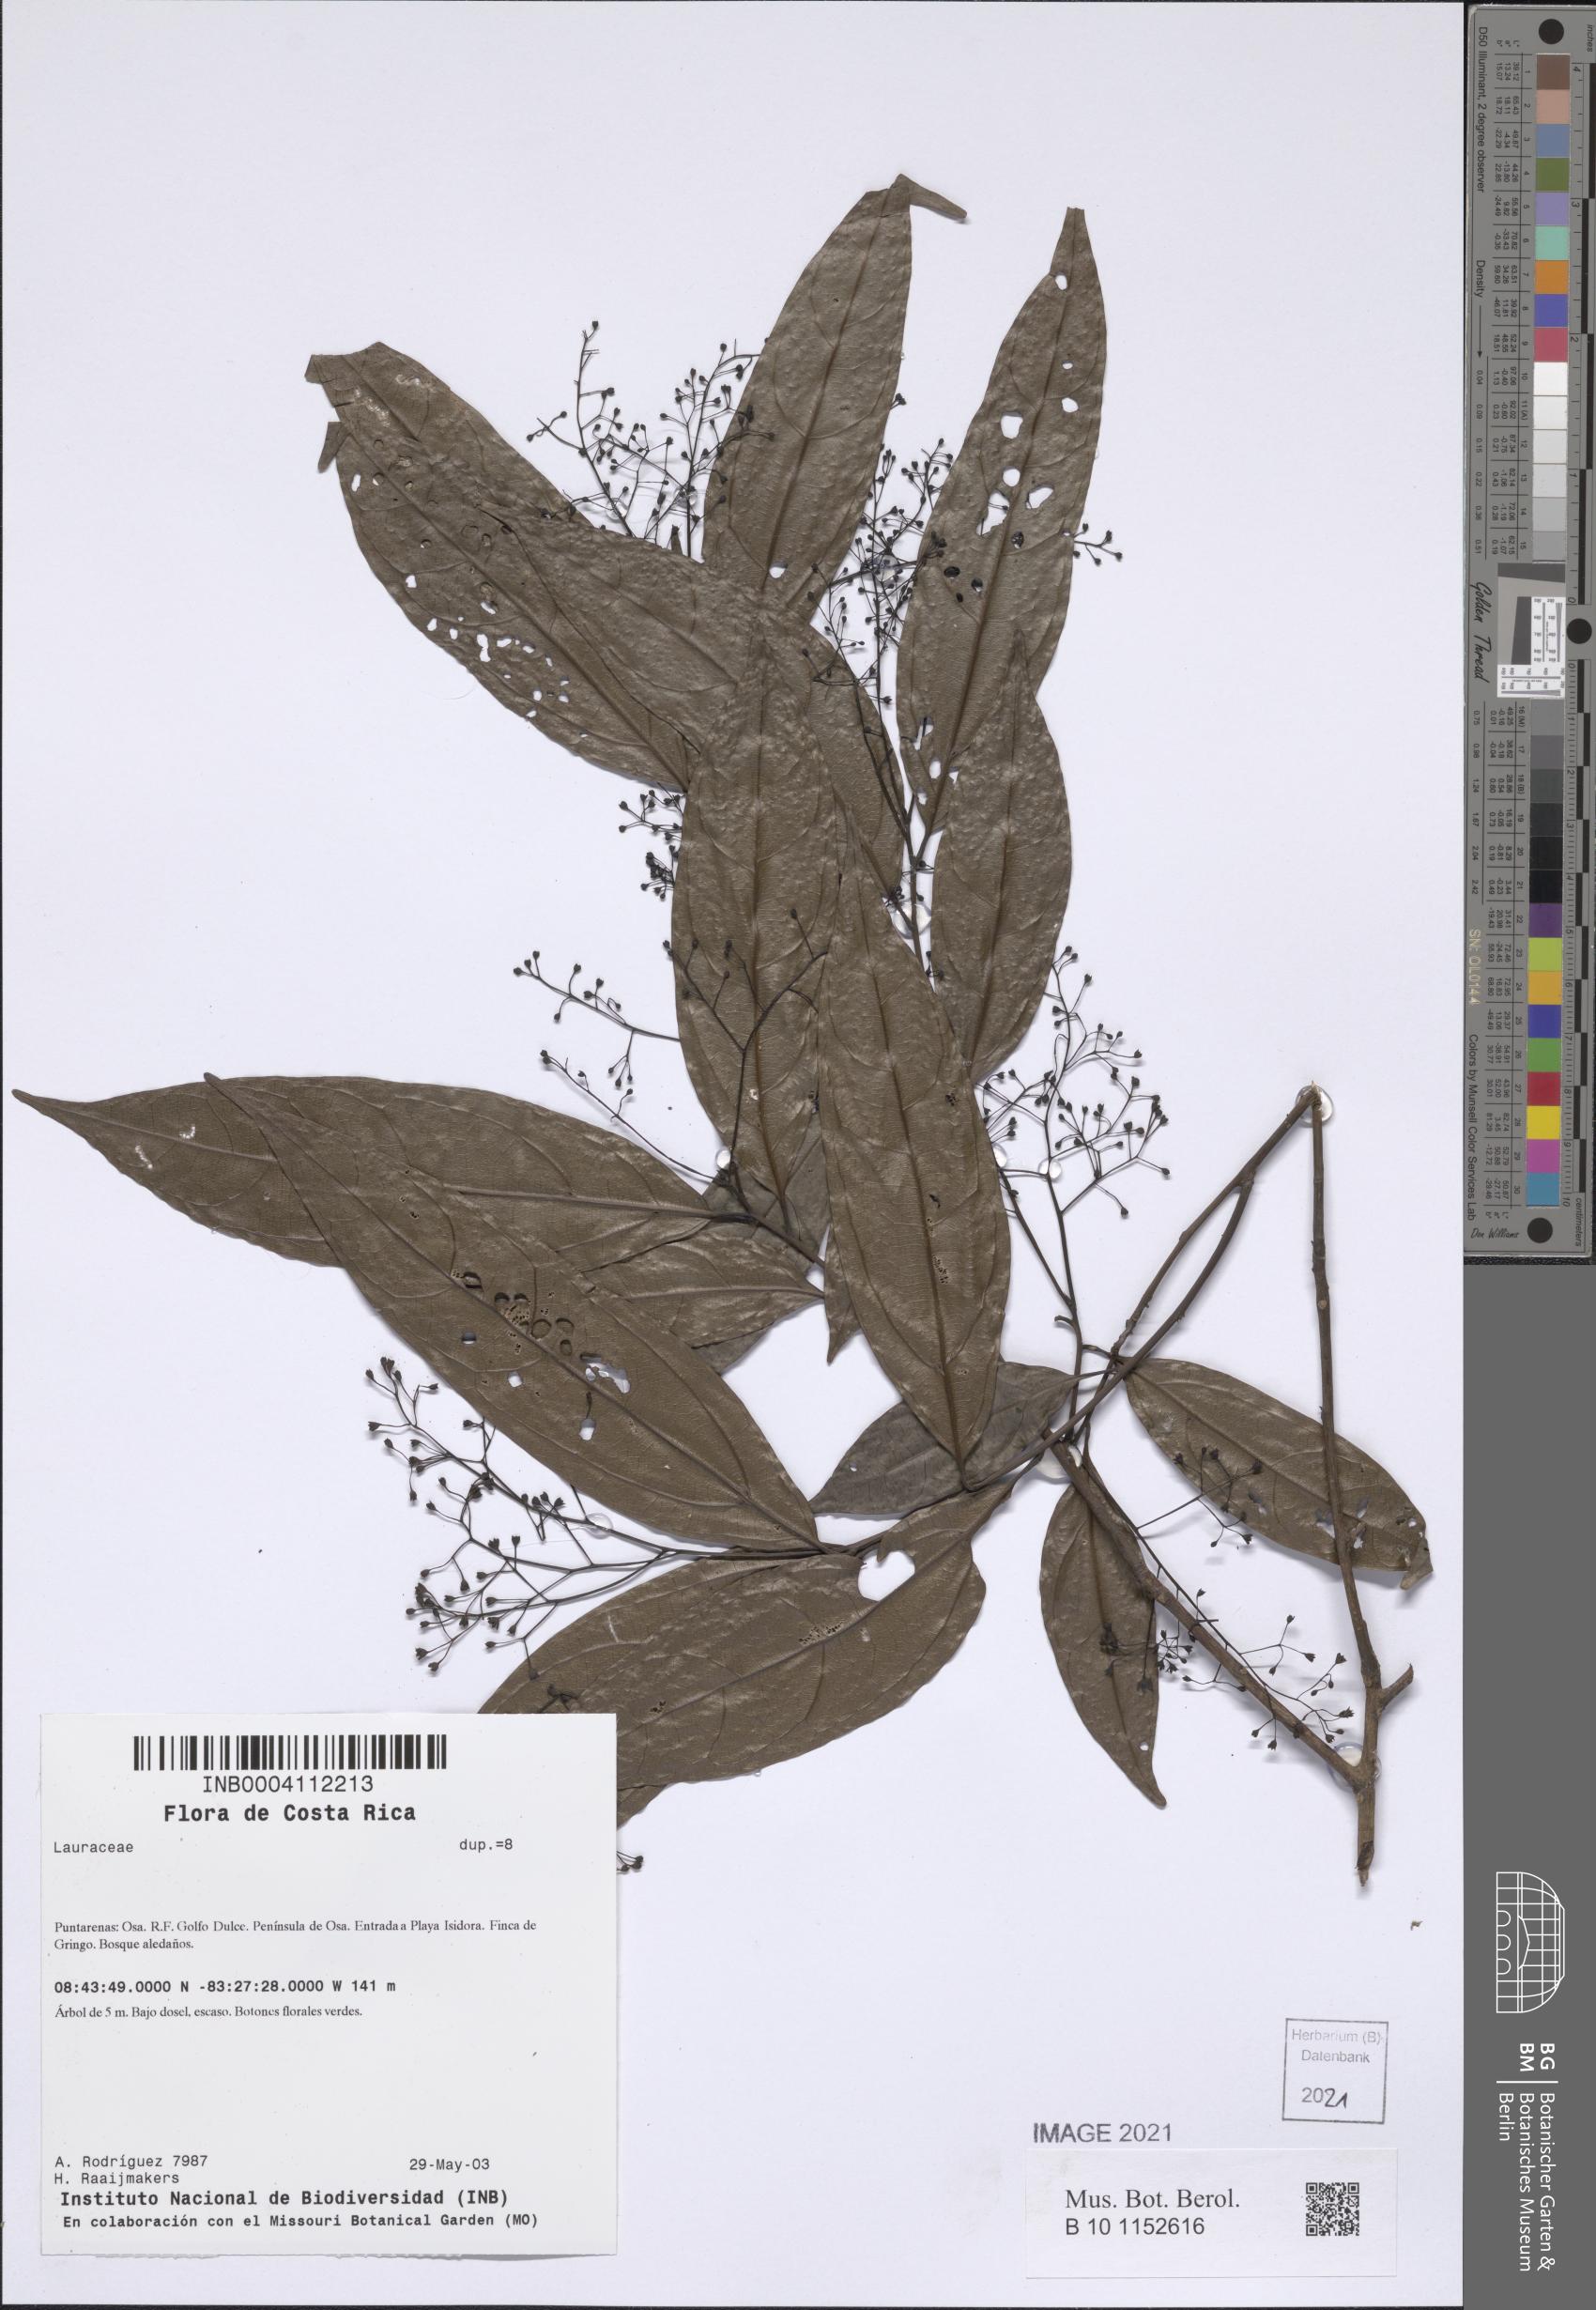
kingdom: Plantae
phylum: Tracheophyta
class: Magnoliopsida
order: Laurales
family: Lauraceae
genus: Aiouea
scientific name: Aiouea obscura
